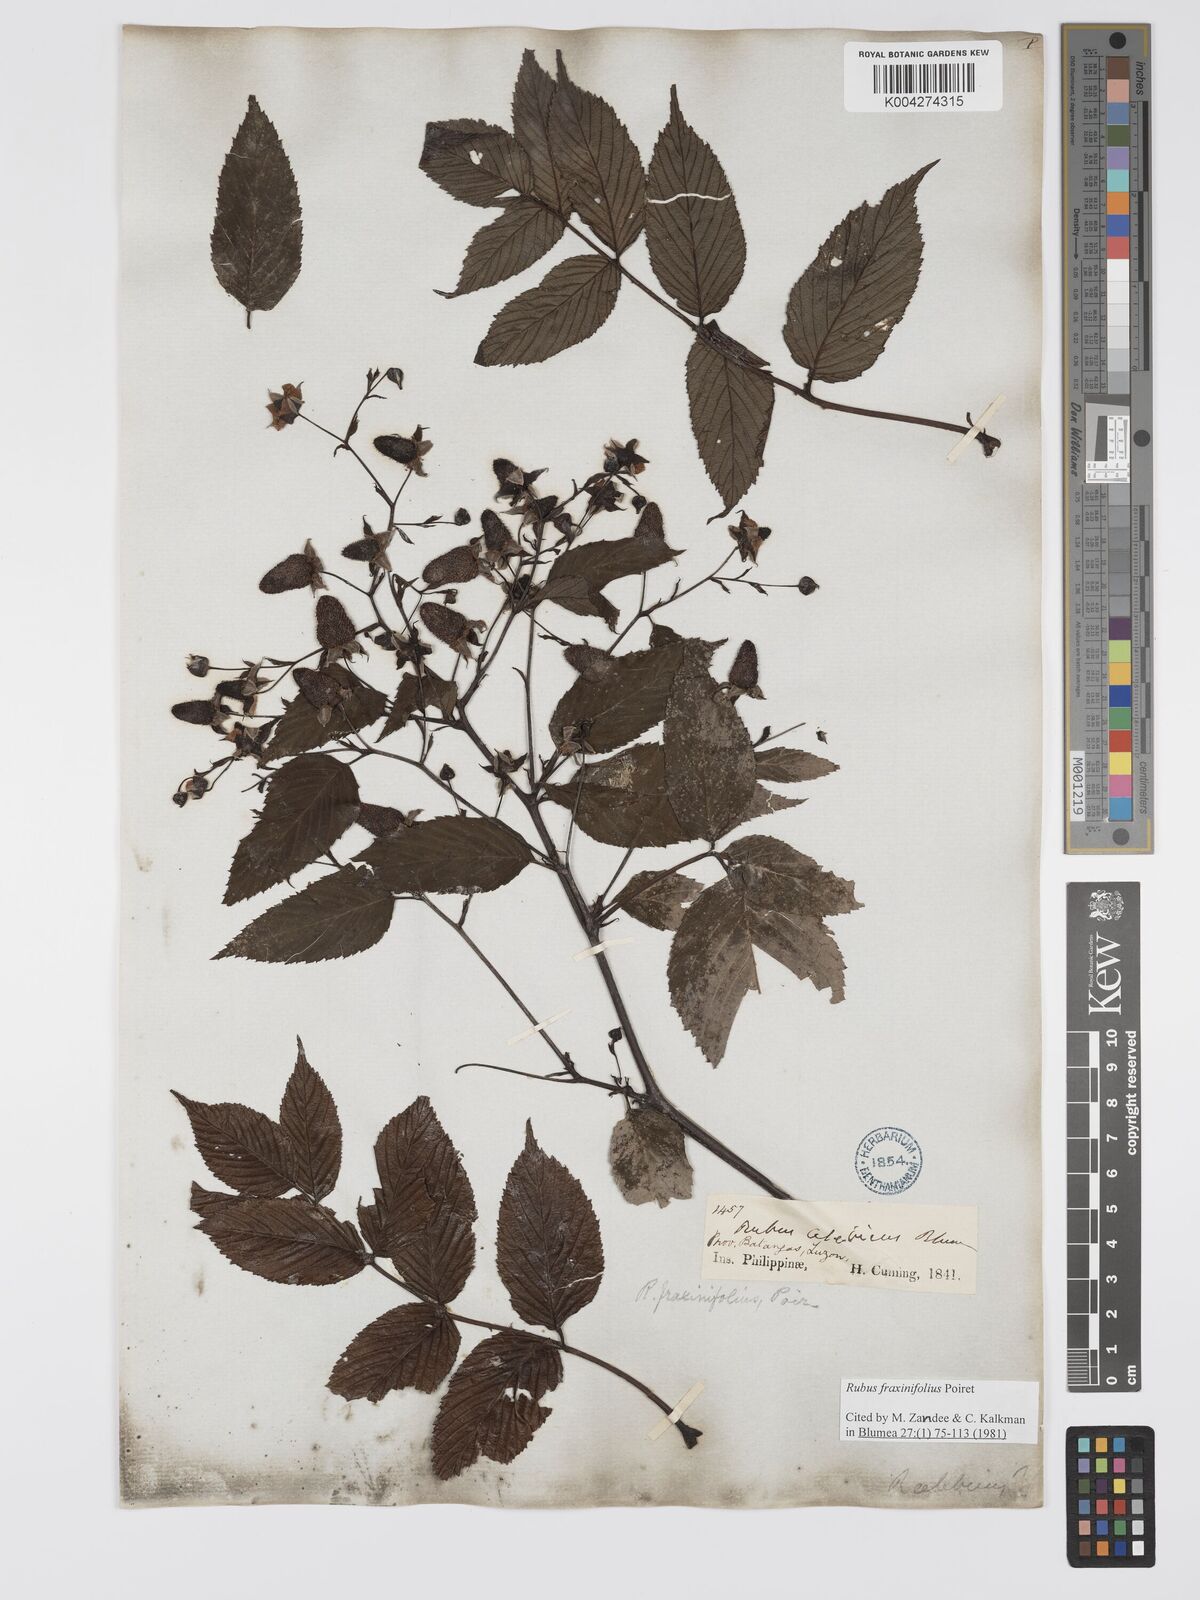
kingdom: Plantae
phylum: Tracheophyta
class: Magnoliopsida
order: Rosales
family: Rosaceae
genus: Rubus
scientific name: Rubus fraxinifolius
